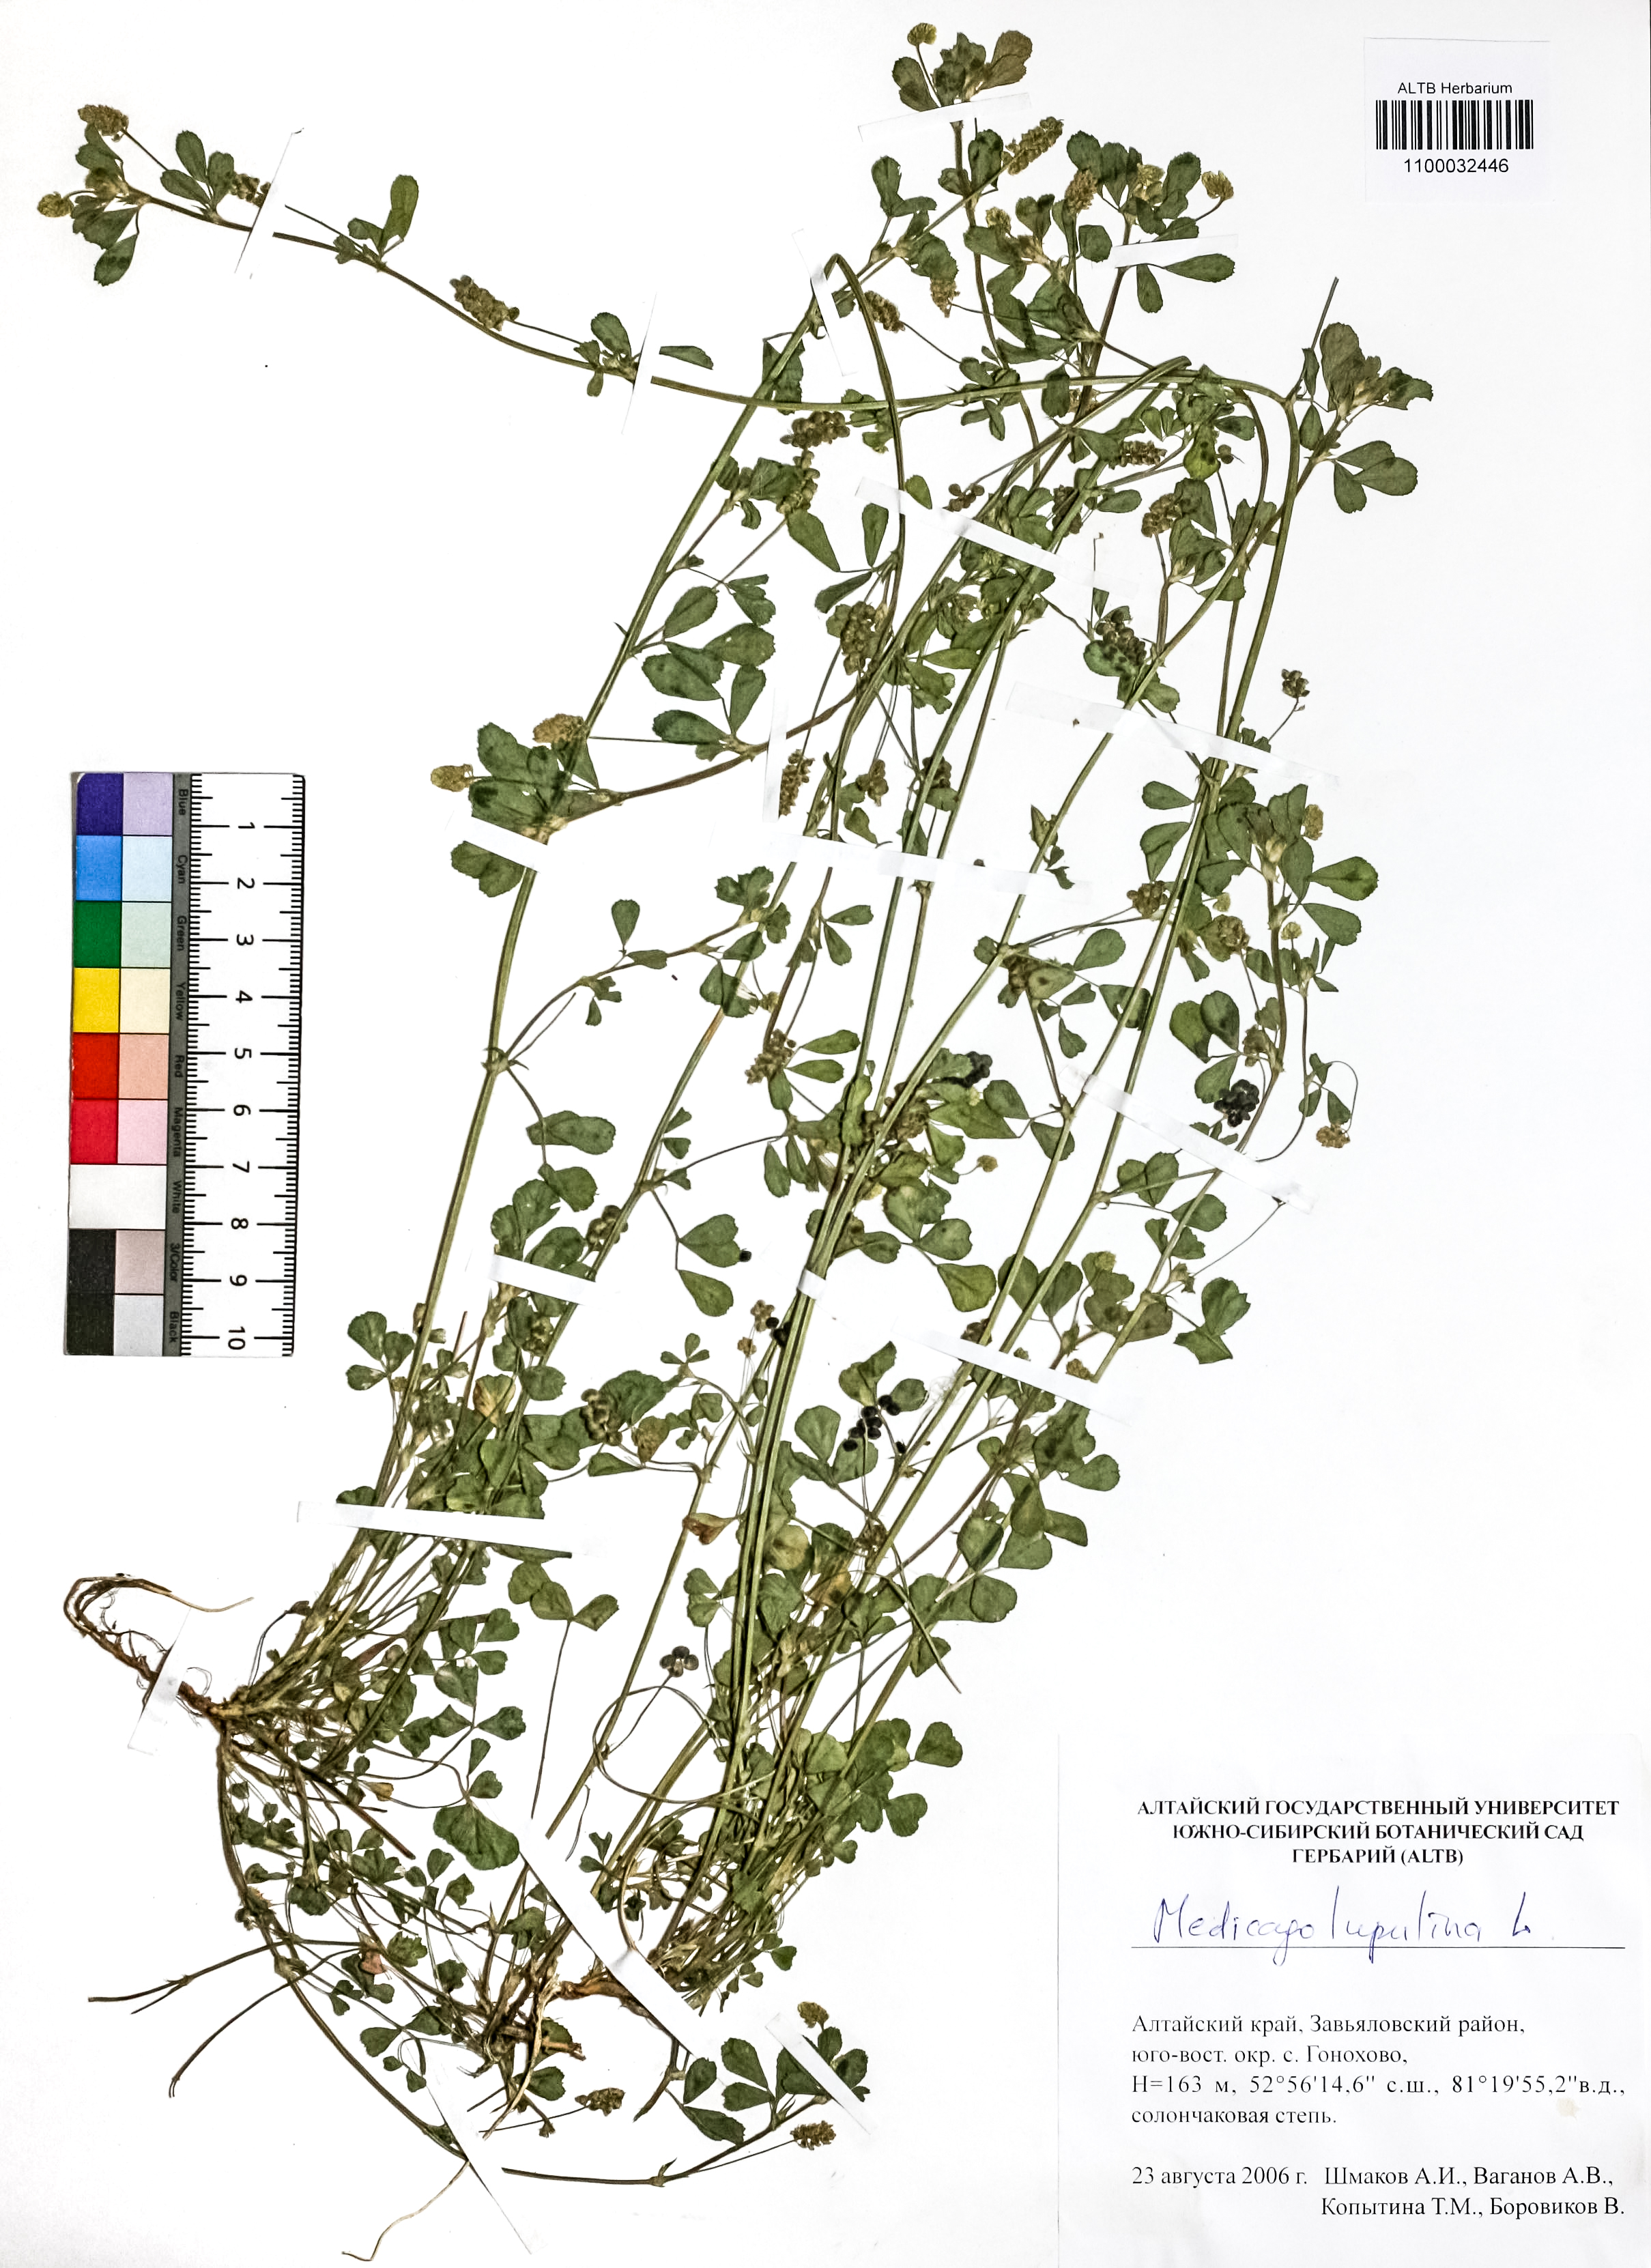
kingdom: Plantae
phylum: Tracheophyta
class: Magnoliopsida
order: Fabales
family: Fabaceae
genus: Medicago
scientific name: Medicago lupulina
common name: Black medick
